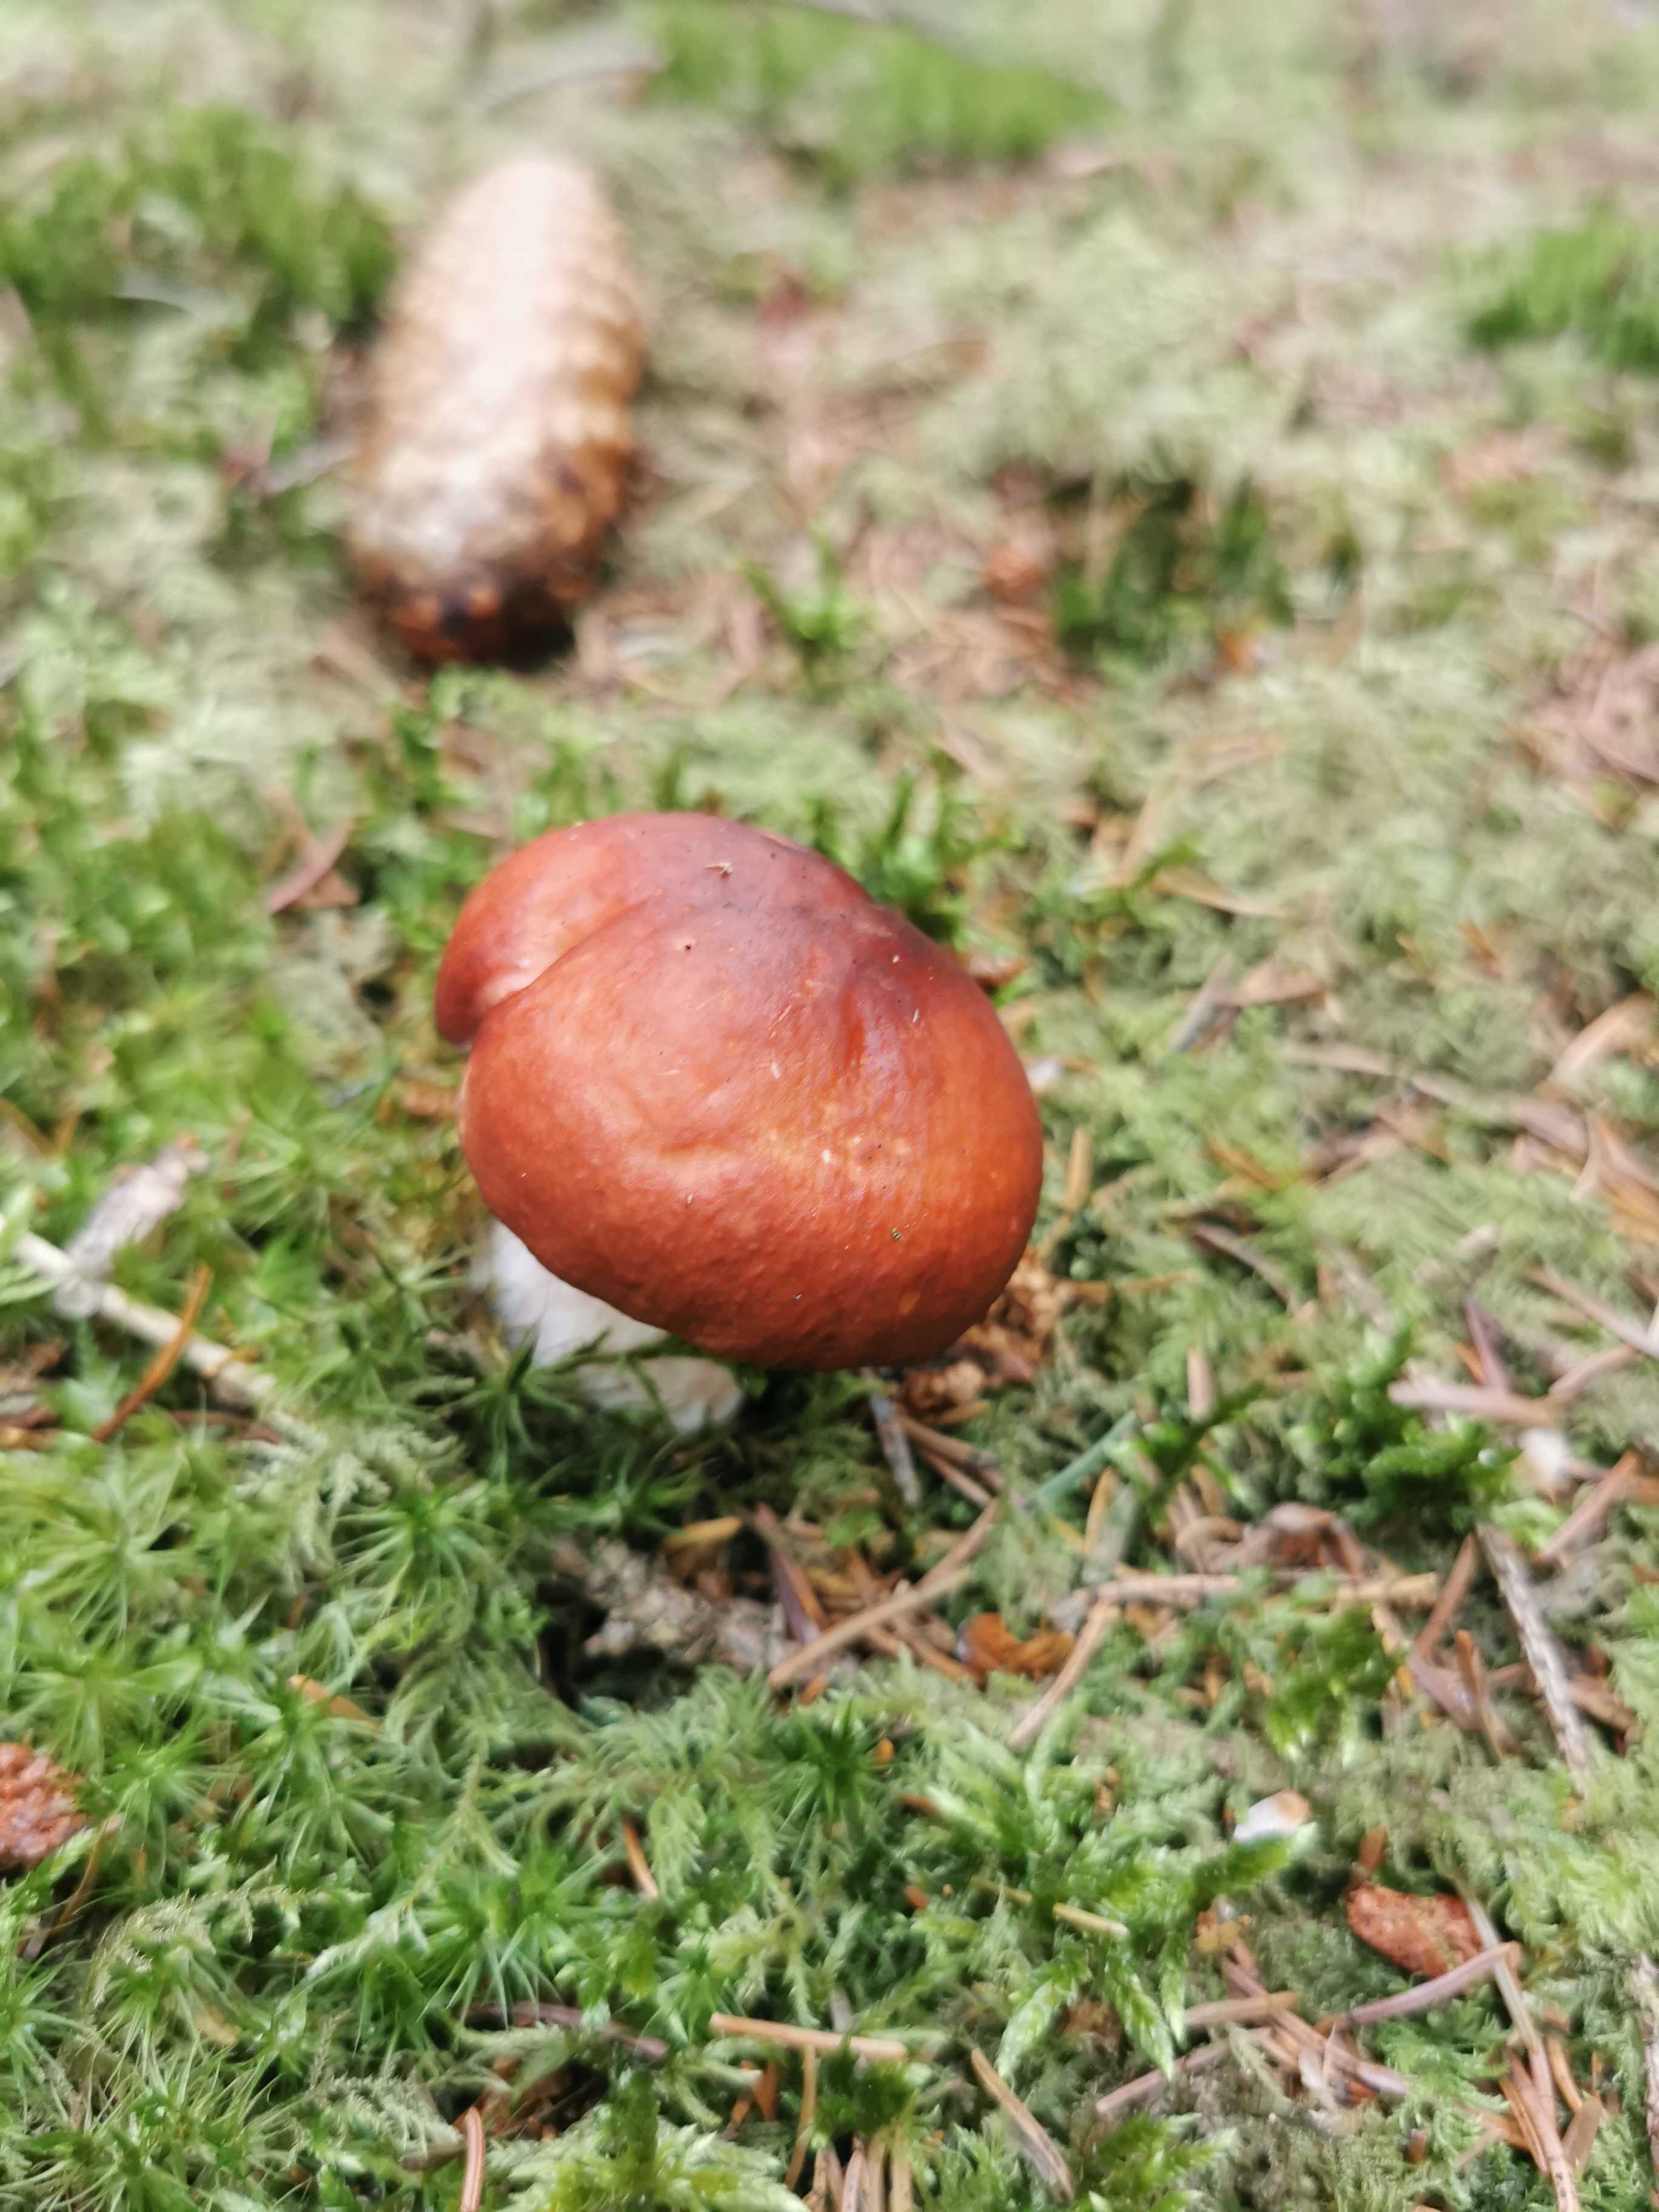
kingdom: Fungi
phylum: Basidiomycota
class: Agaricomycetes
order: Russulales
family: Russulaceae
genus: Russula
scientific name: Russula paludosa
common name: prægtig skørhat
